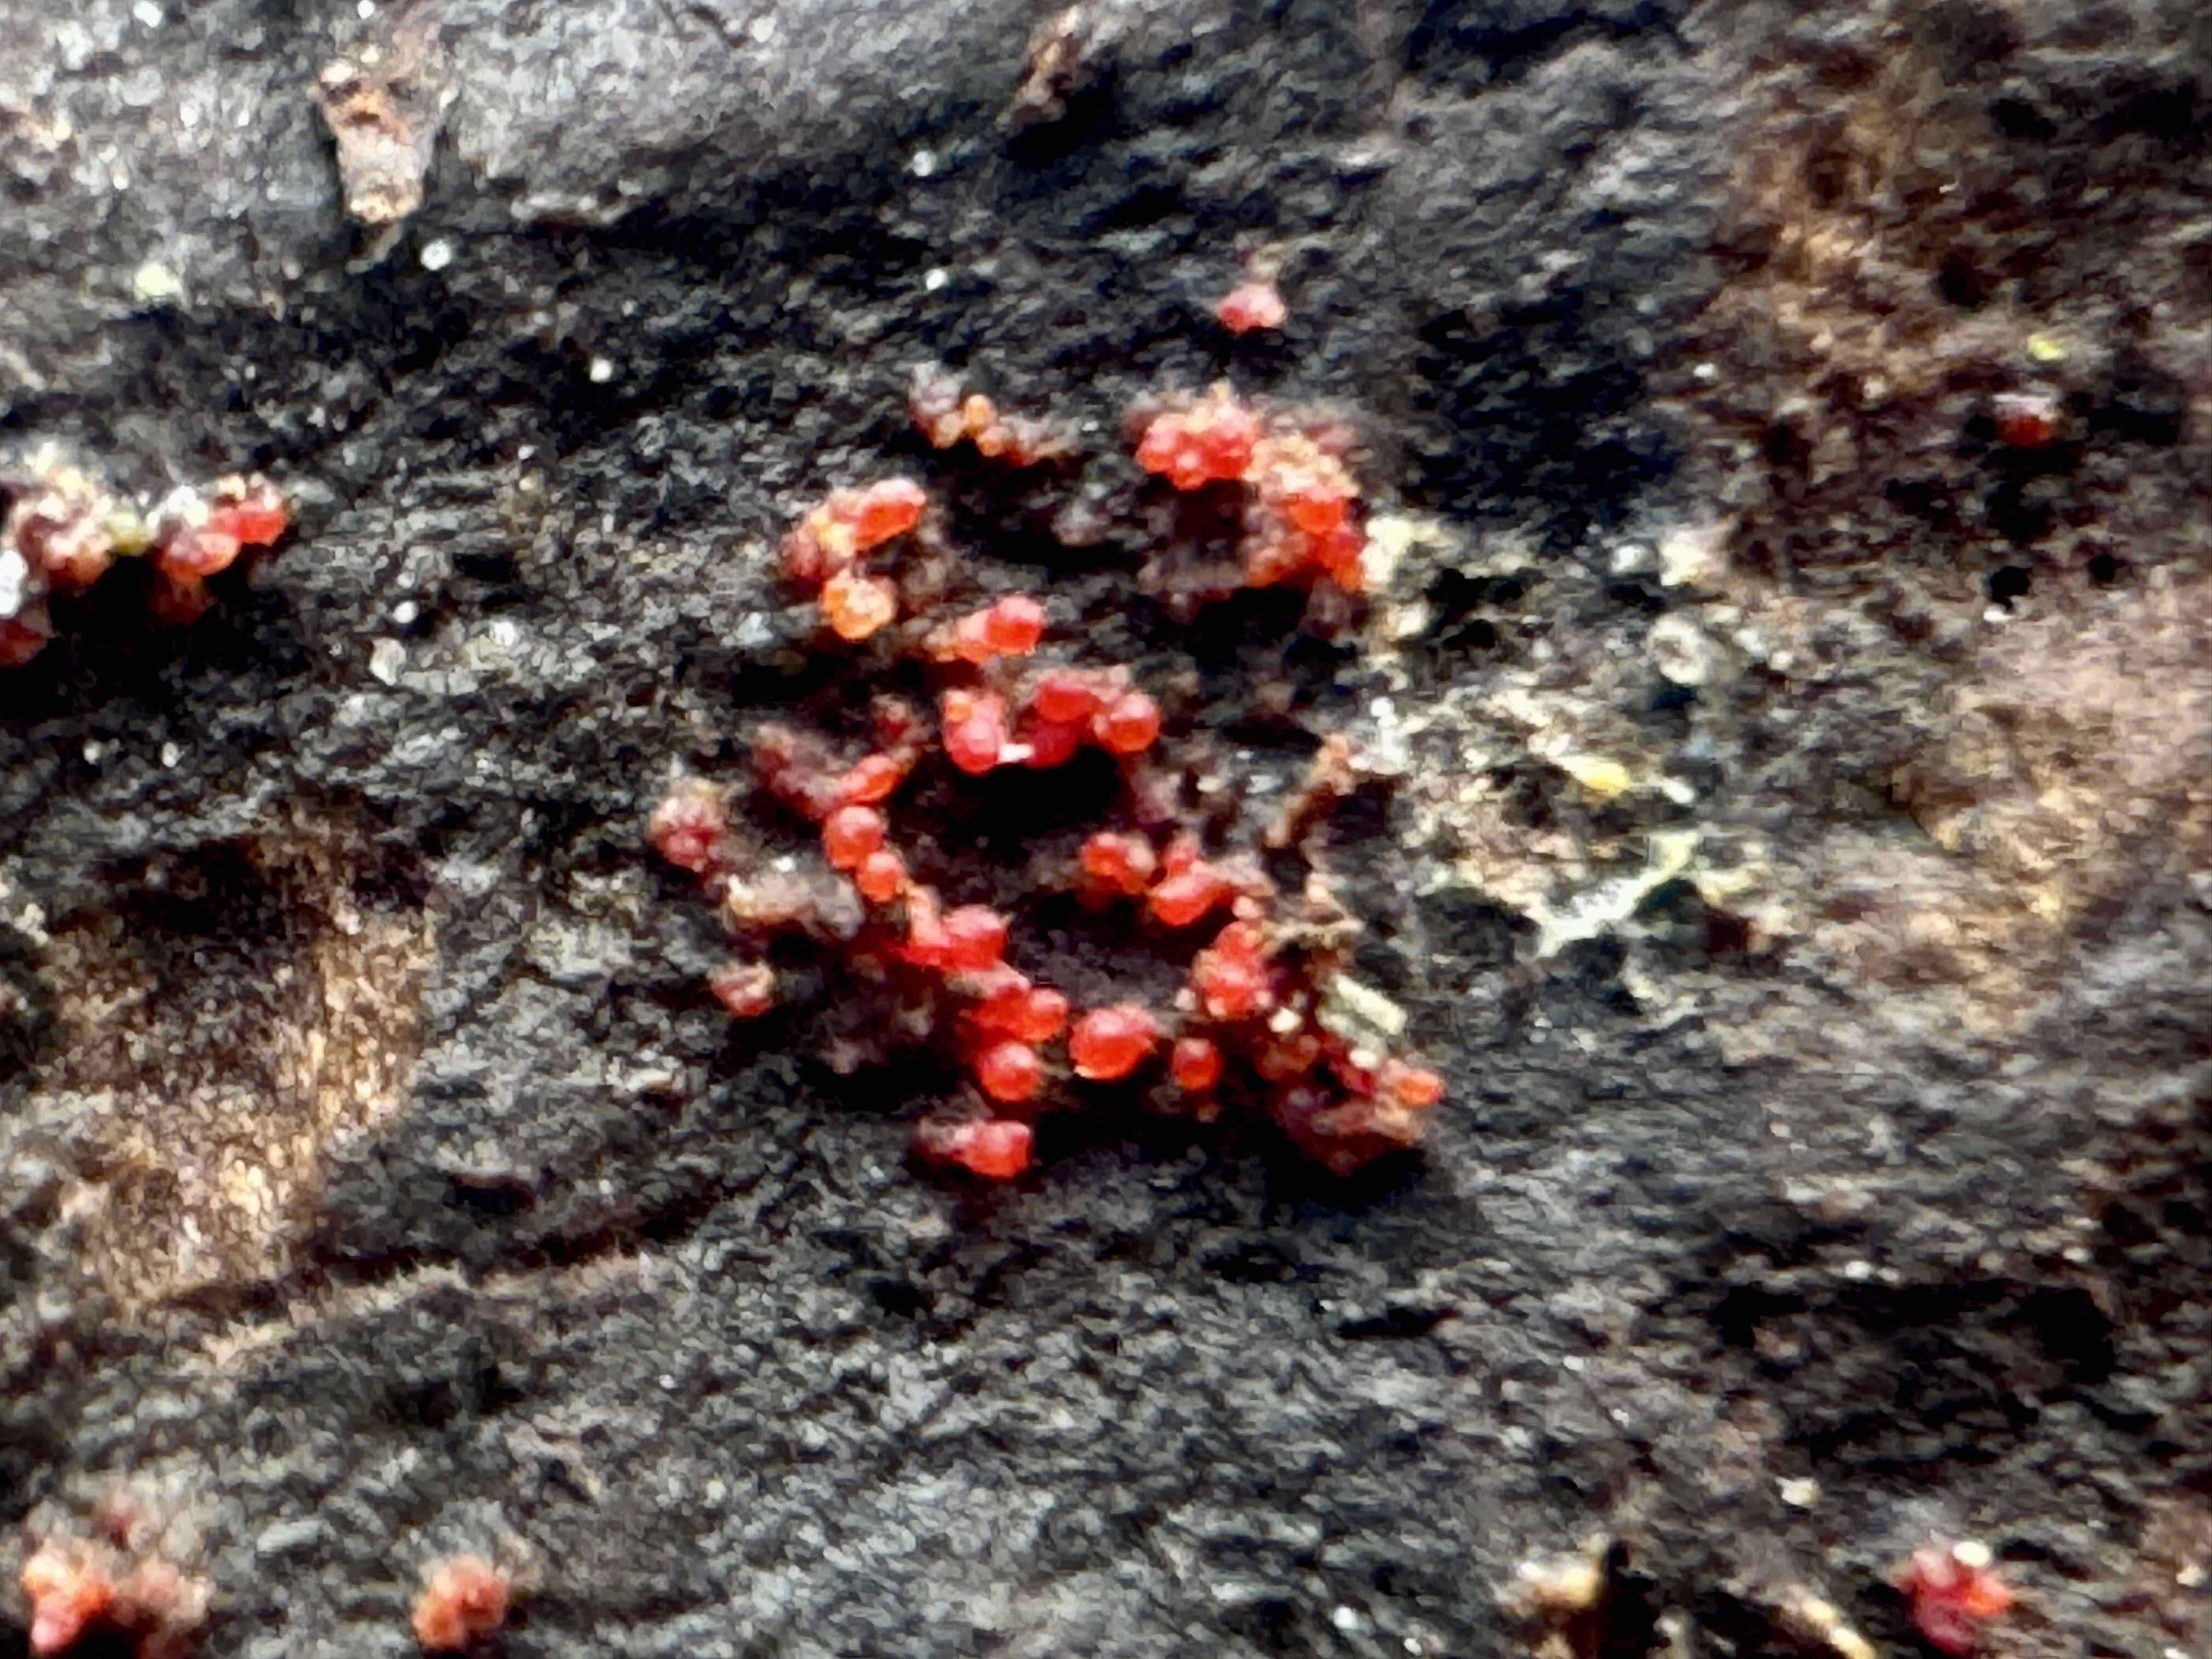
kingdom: Fungi
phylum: Ascomycota
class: Sordariomycetes
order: Hypocreales
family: Nectriaceae
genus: Nectria
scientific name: Nectria cinnabarina
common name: almindelig cinnobersvamp
